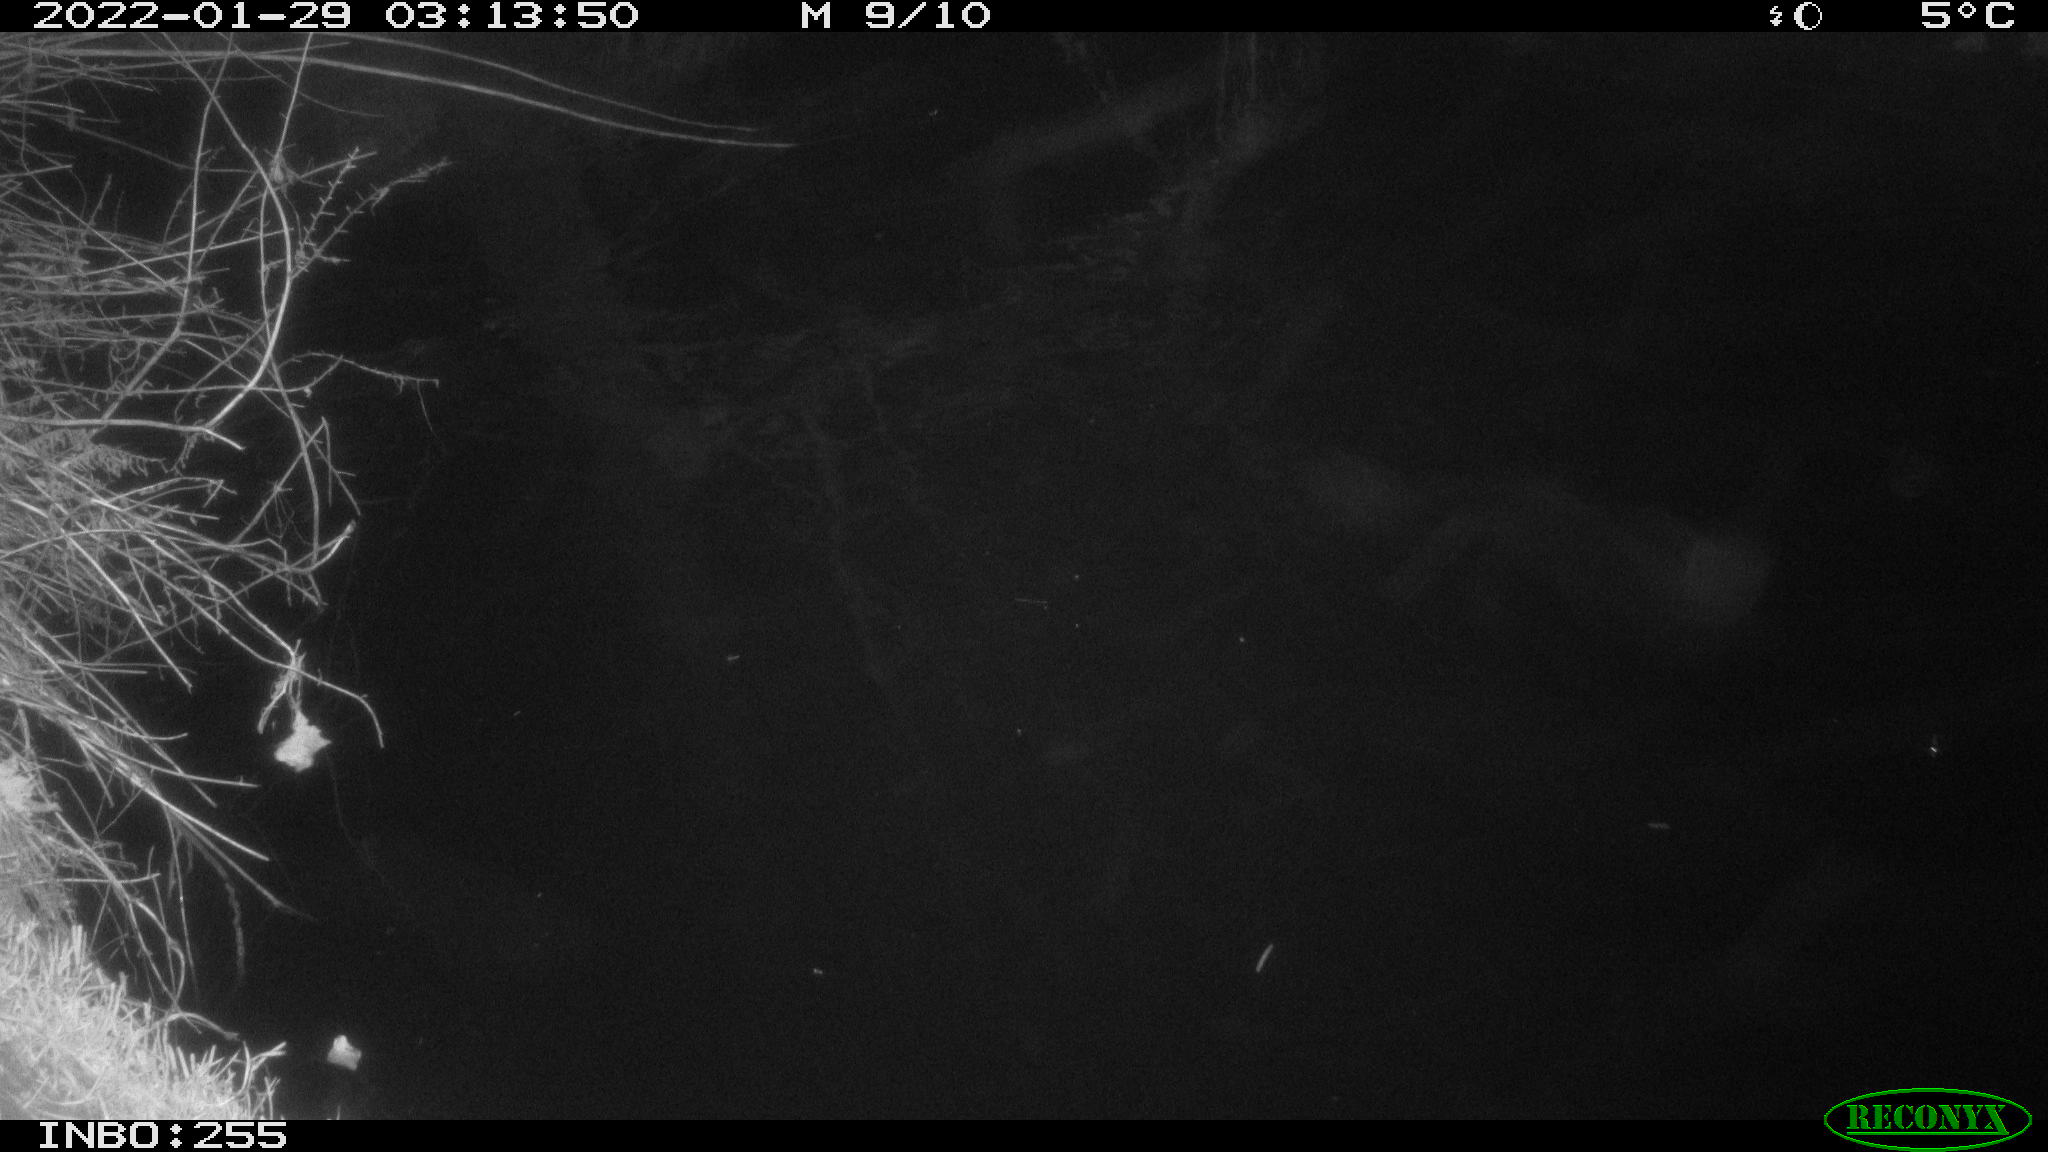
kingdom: Animalia
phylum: Chordata
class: Mammalia
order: Rodentia
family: Muridae
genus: Rattus
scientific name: Rattus norvegicus
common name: Brown rat
